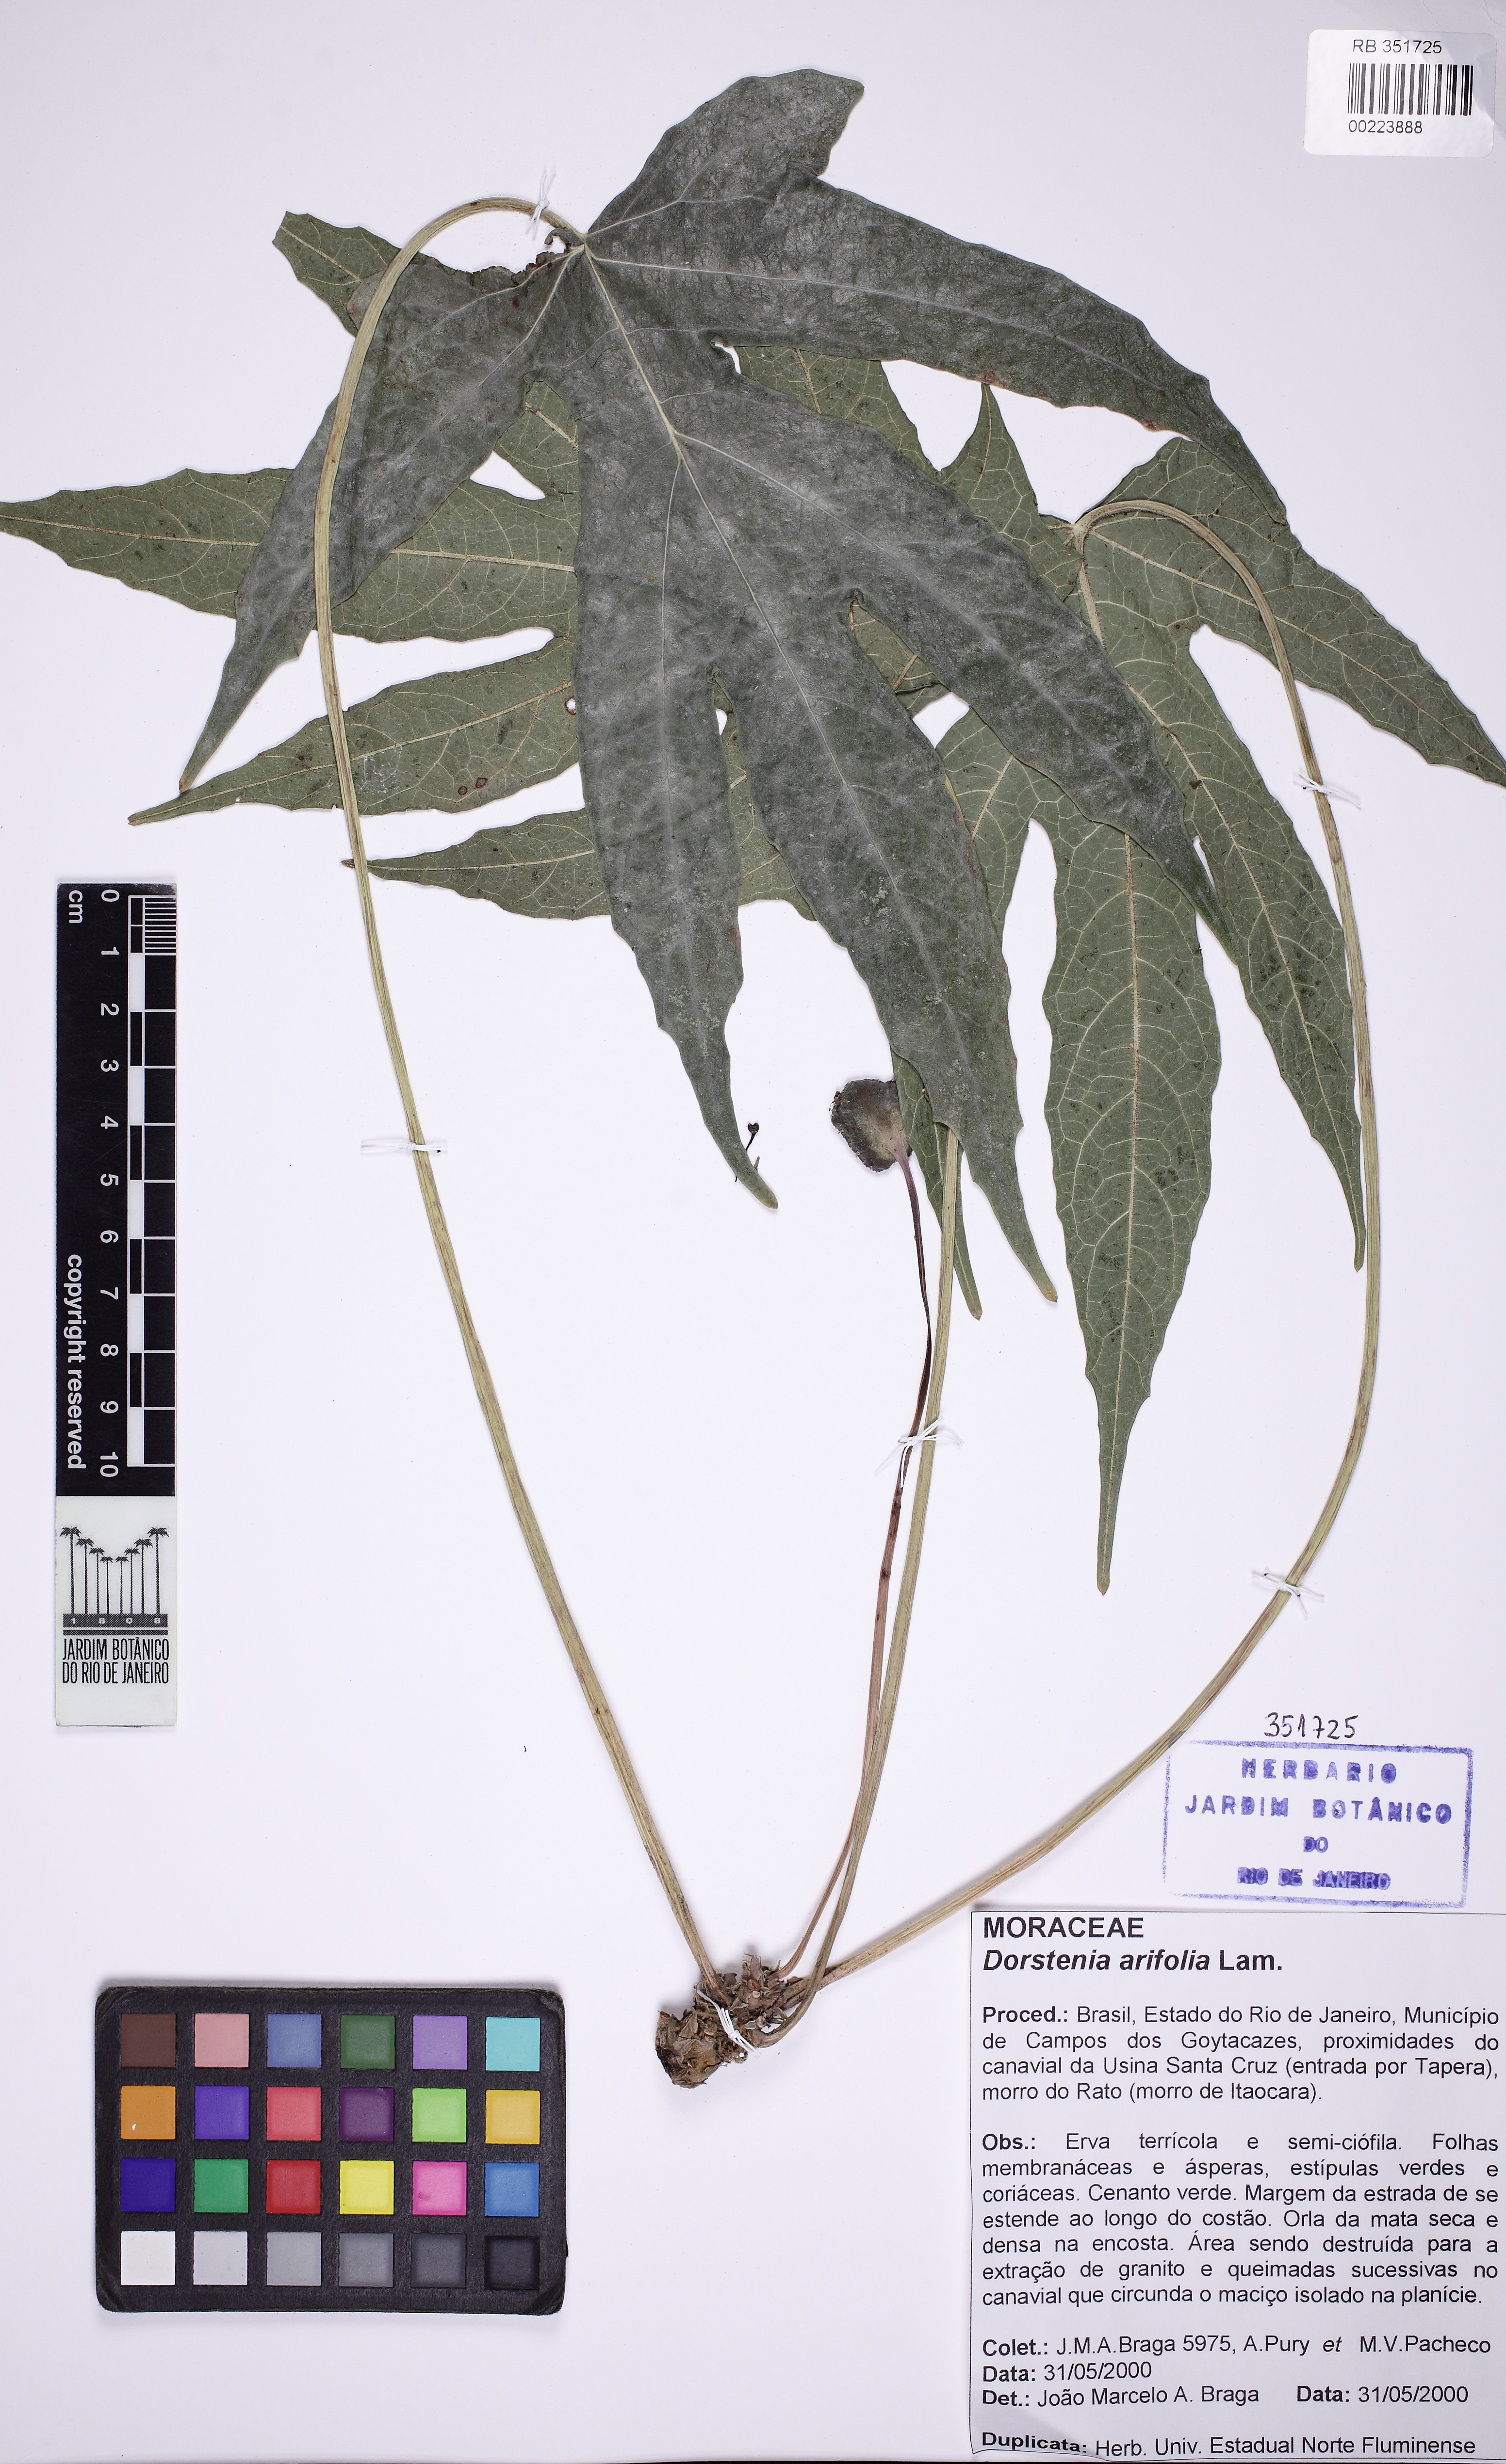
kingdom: Plantae
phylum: Tracheophyta
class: Magnoliopsida
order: Rosales
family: Moraceae
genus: Dorstenia
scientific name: Dorstenia arifolia
